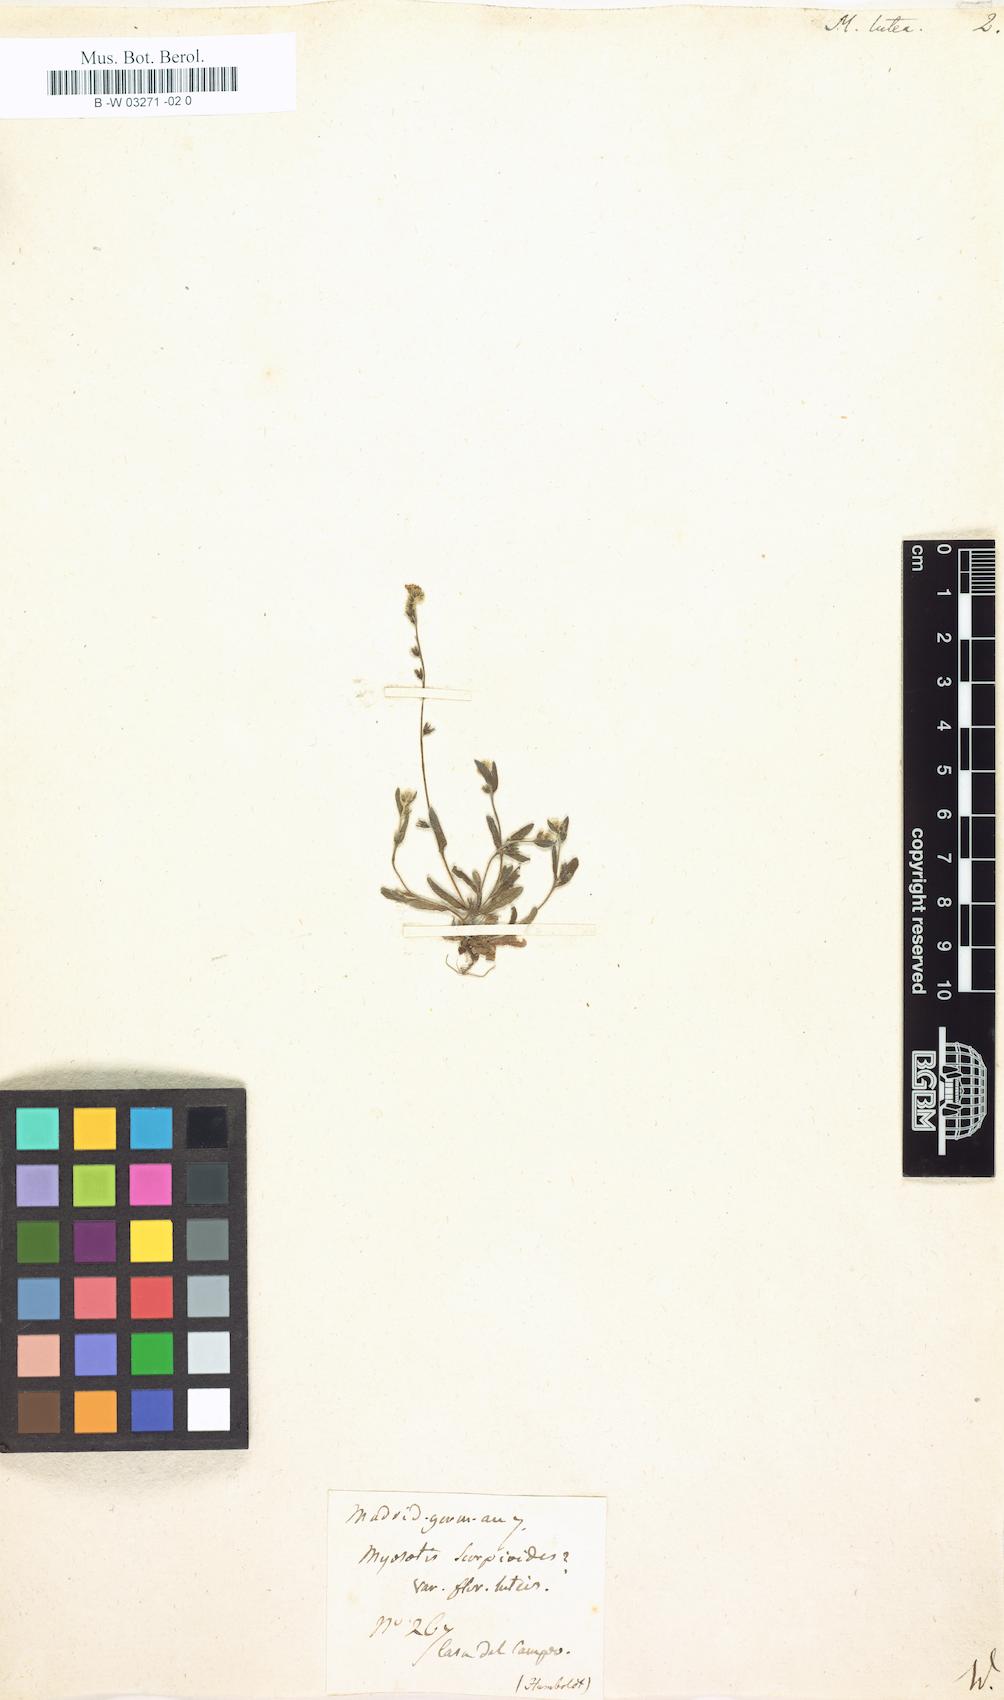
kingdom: Plantae
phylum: Tracheophyta
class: Magnoliopsida
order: Boraginales
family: Boraginaceae
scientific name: Boraginaceae
